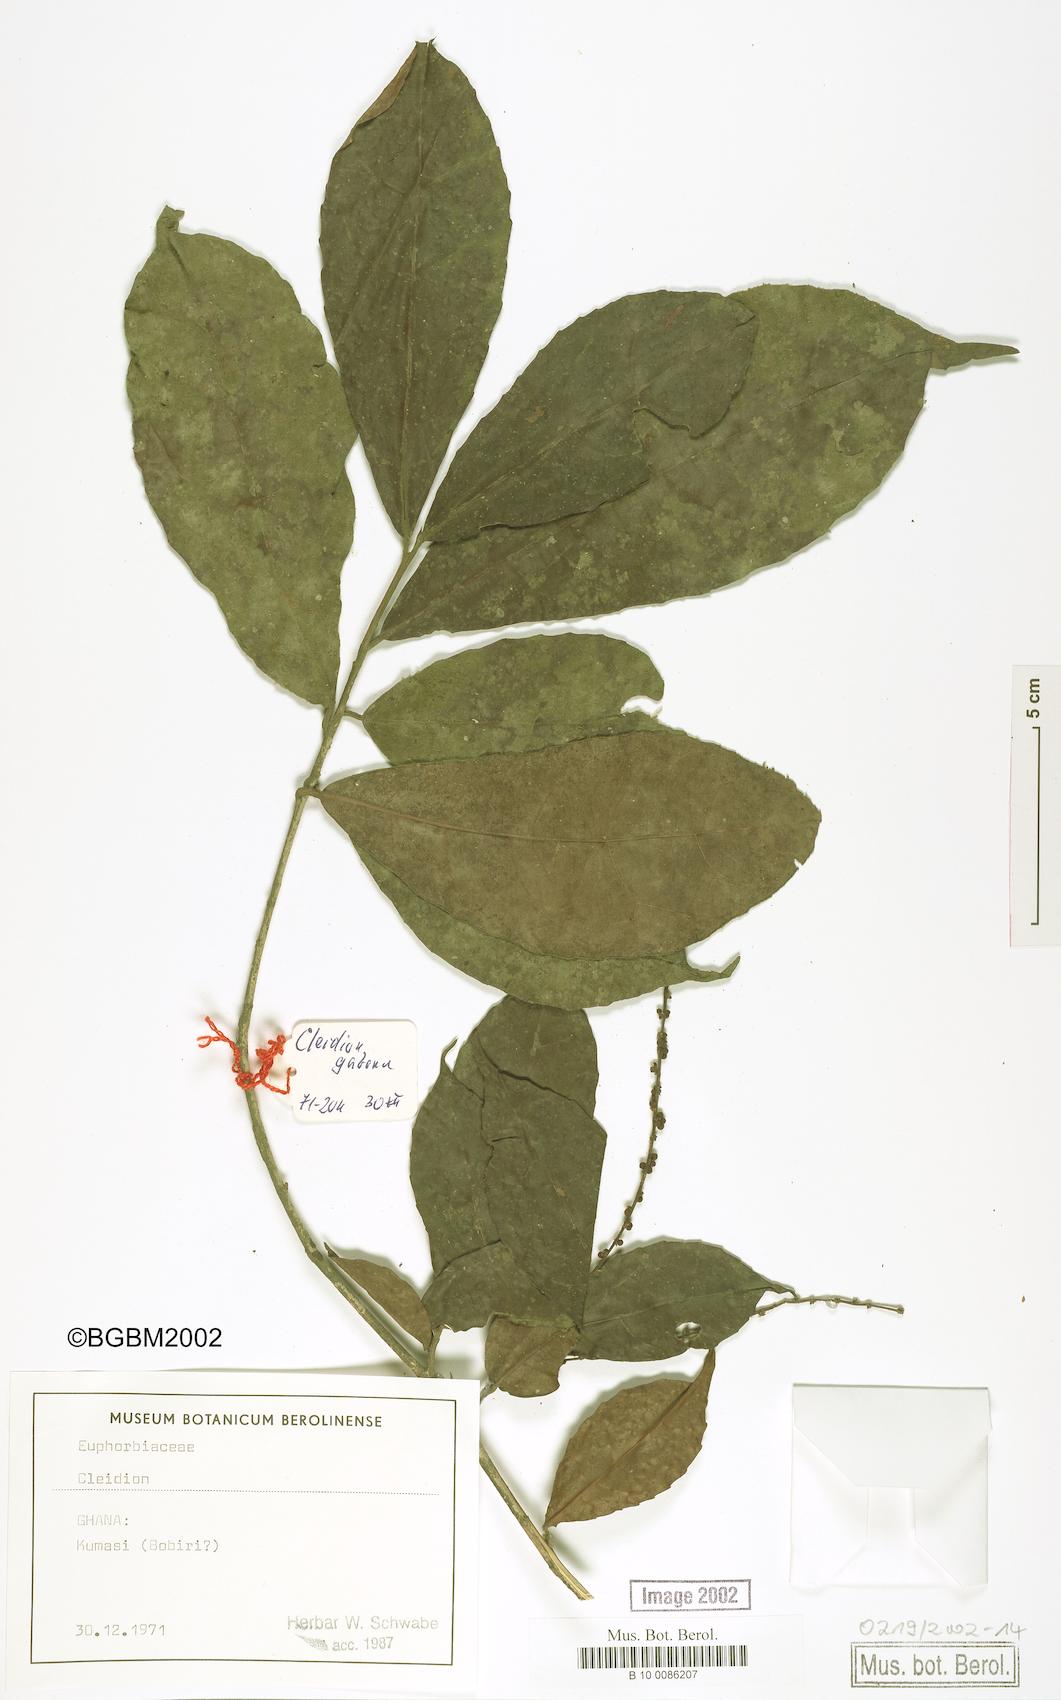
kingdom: Plantae
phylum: Tracheophyta
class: Magnoliopsida
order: Malpighiales
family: Euphorbiaceae
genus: Cleidion
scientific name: Cleidion
